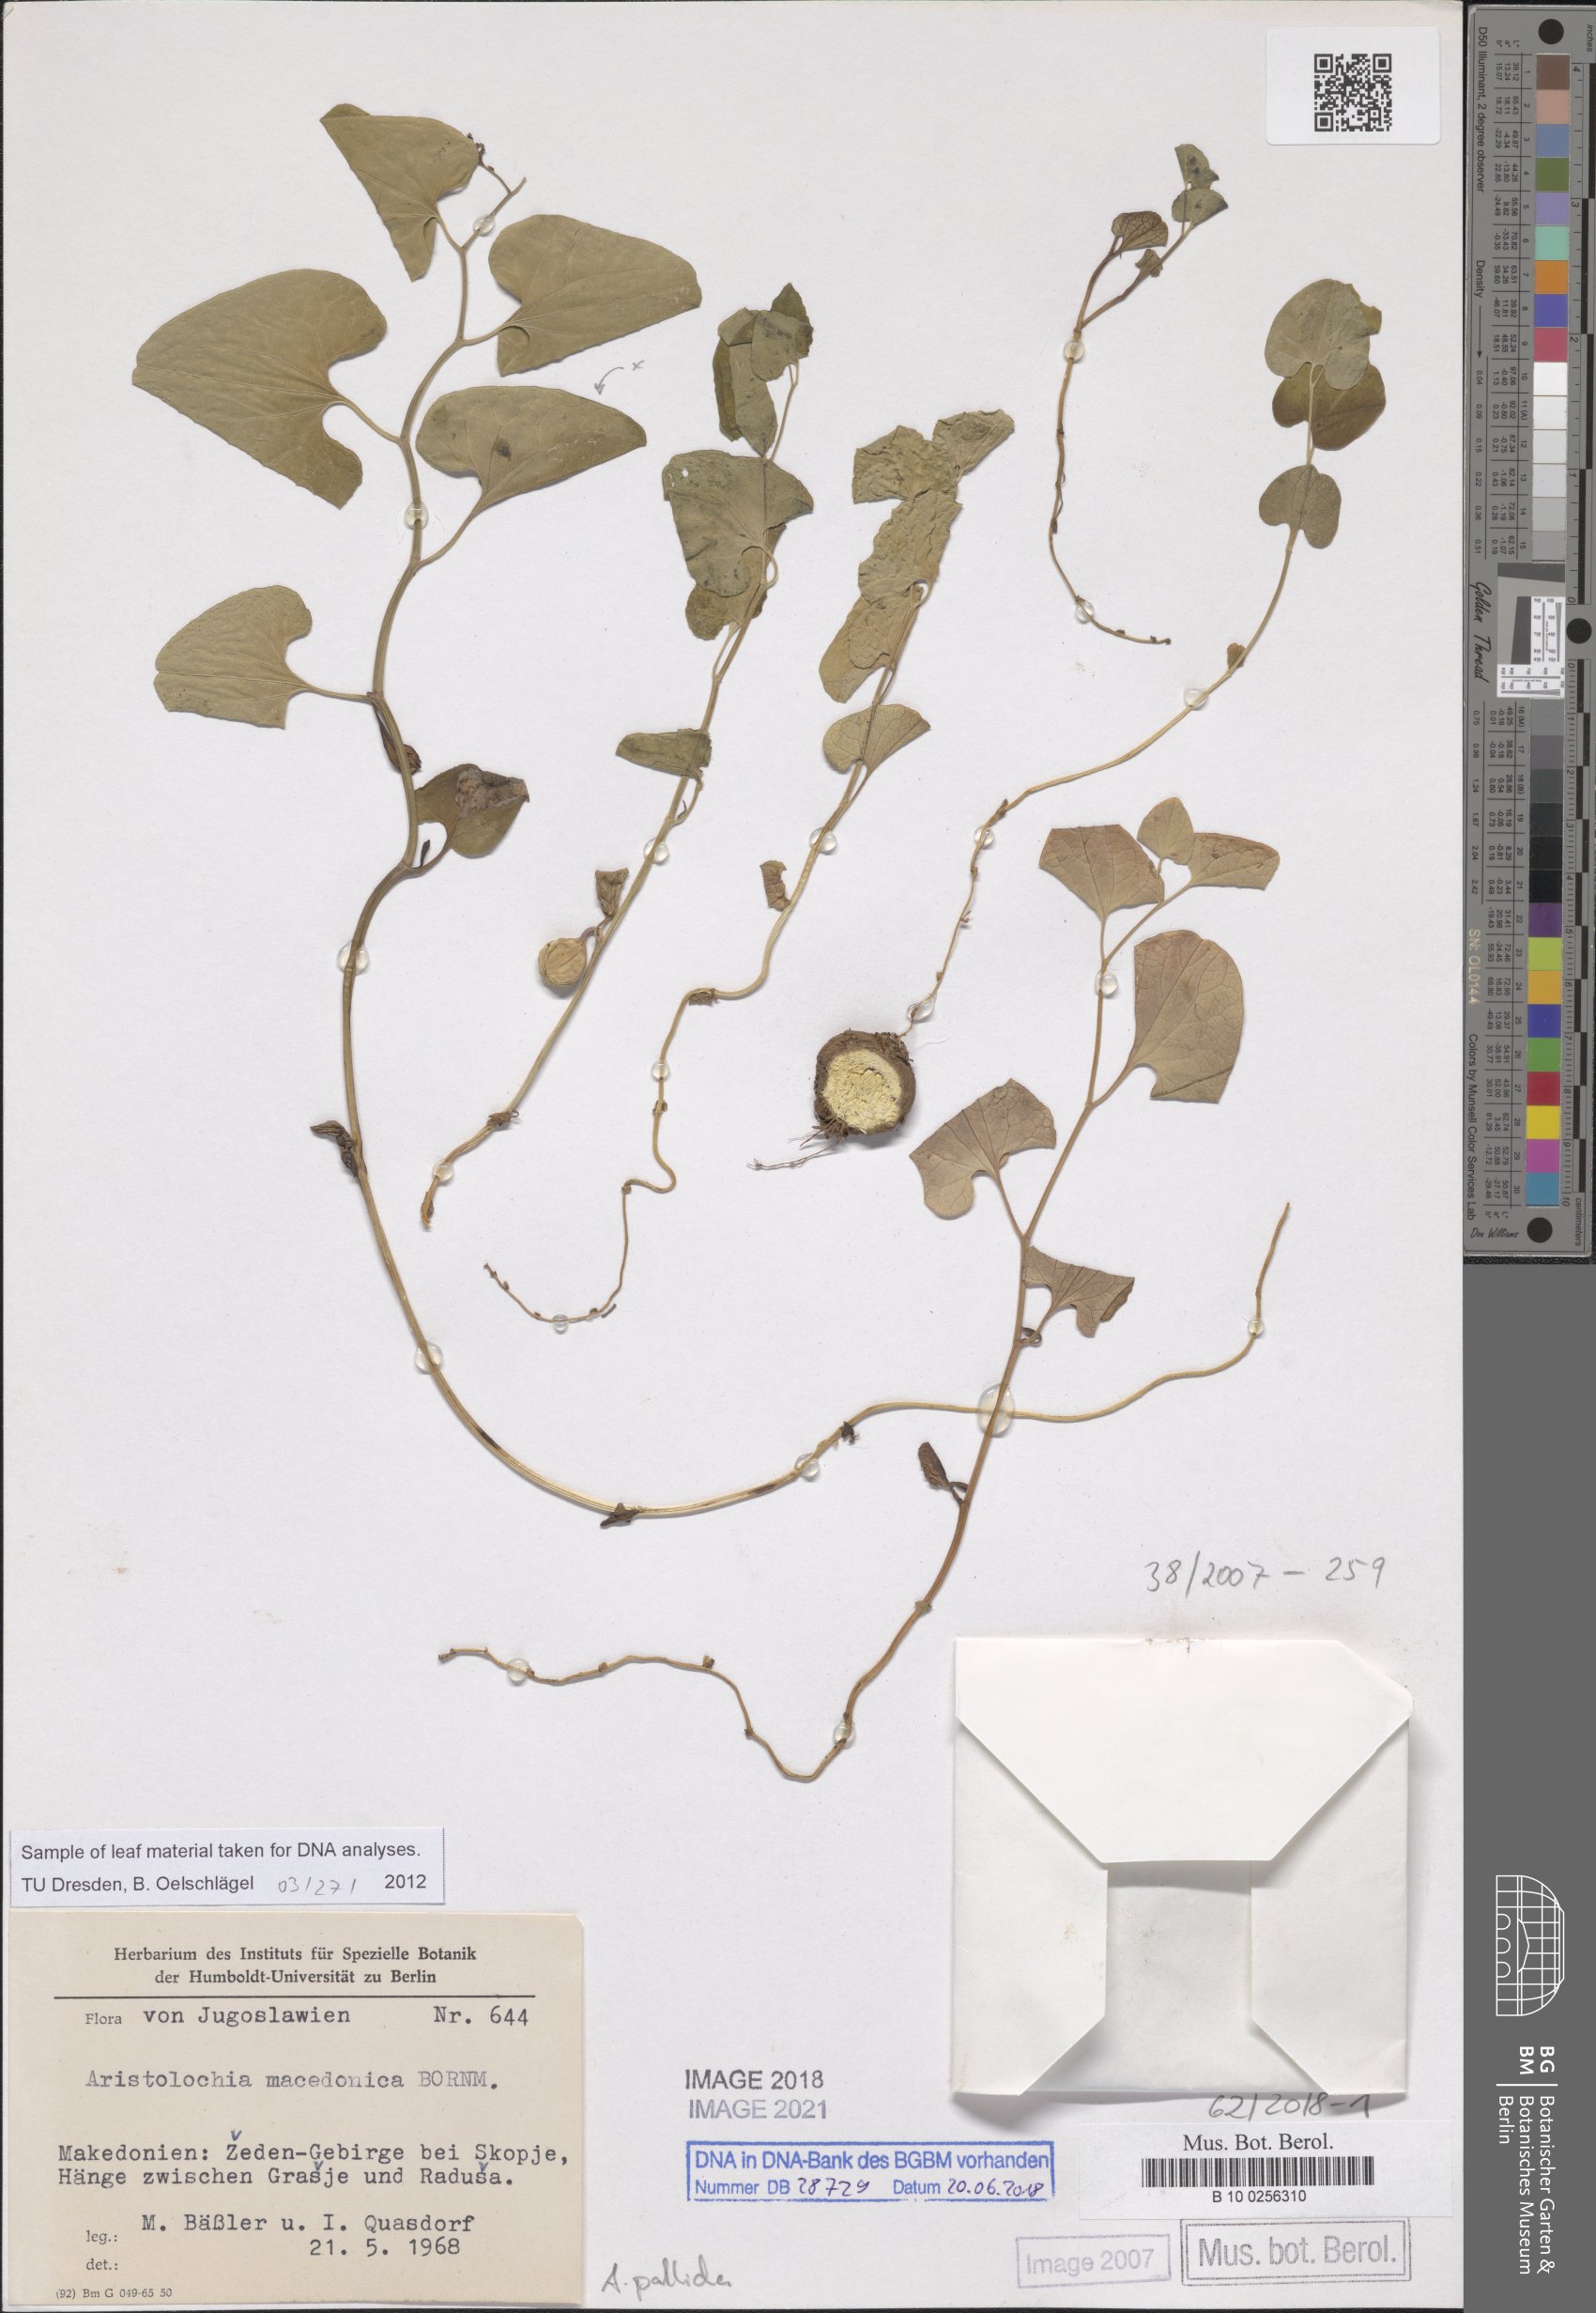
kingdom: Plantae
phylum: Tracheophyta
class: Magnoliopsida
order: Piperales
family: Aristolochiaceae
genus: Aristolochia
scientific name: Aristolochia pallida
